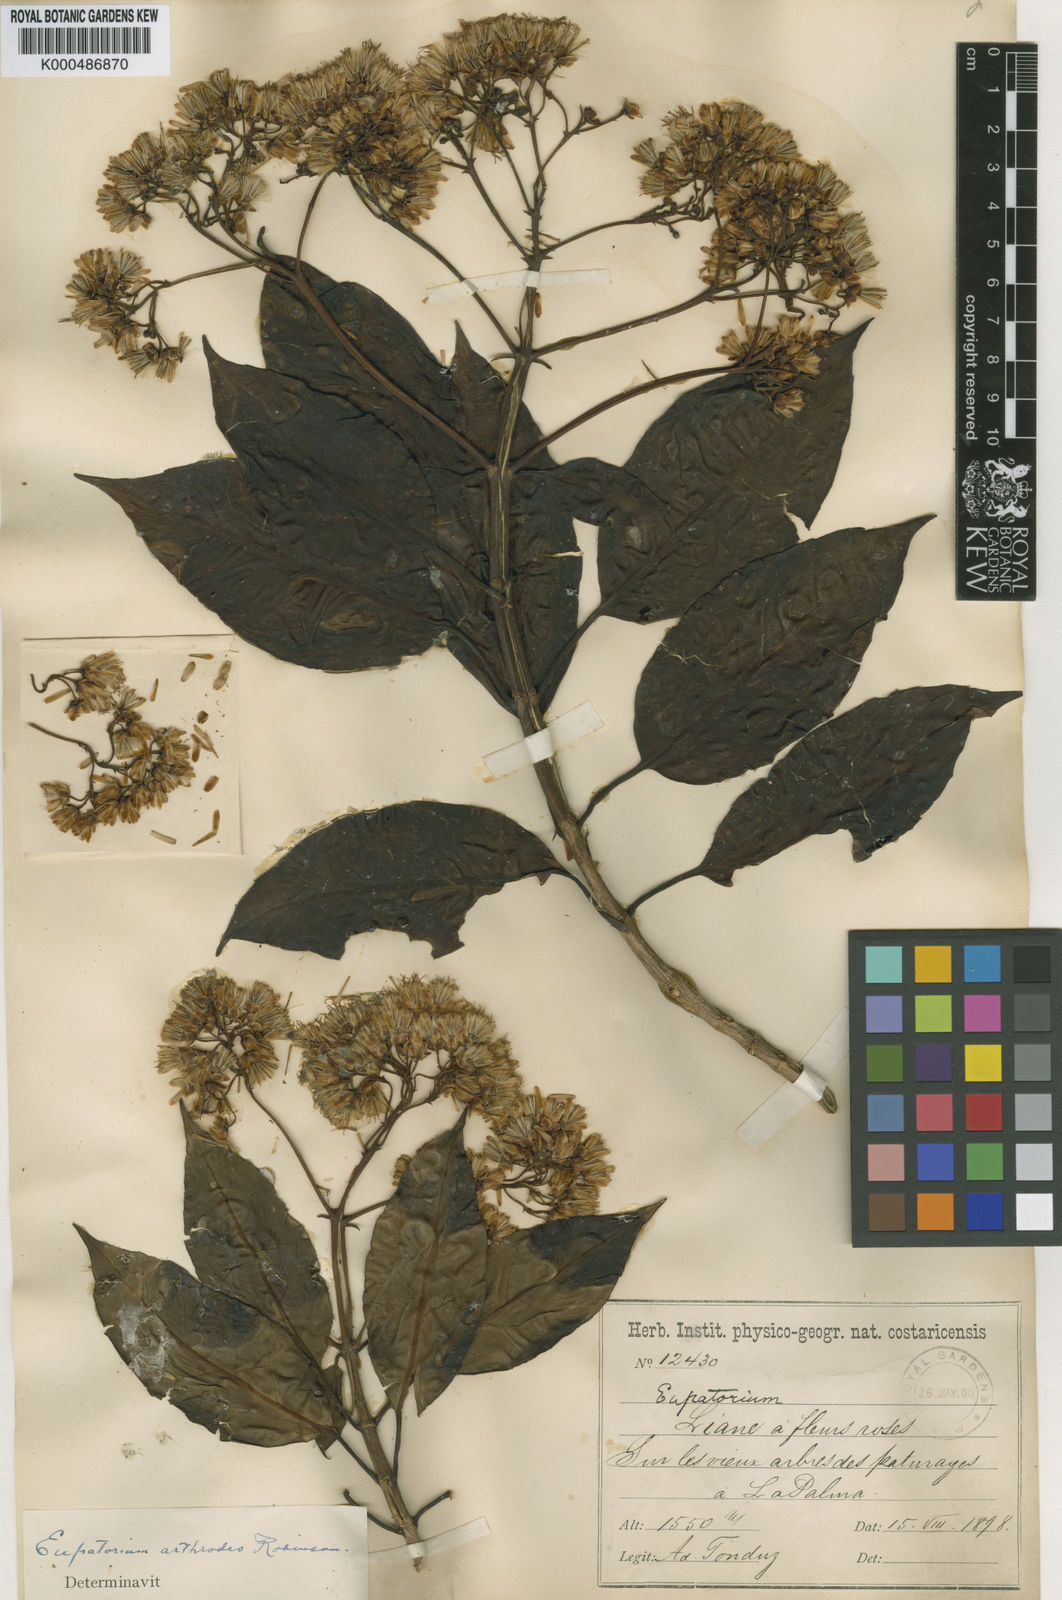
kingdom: Plantae
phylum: Tracheophyta
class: Magnoliopsida
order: Asterales
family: Asteraceae
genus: Neomirandea
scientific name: Neomirandea arthodes
